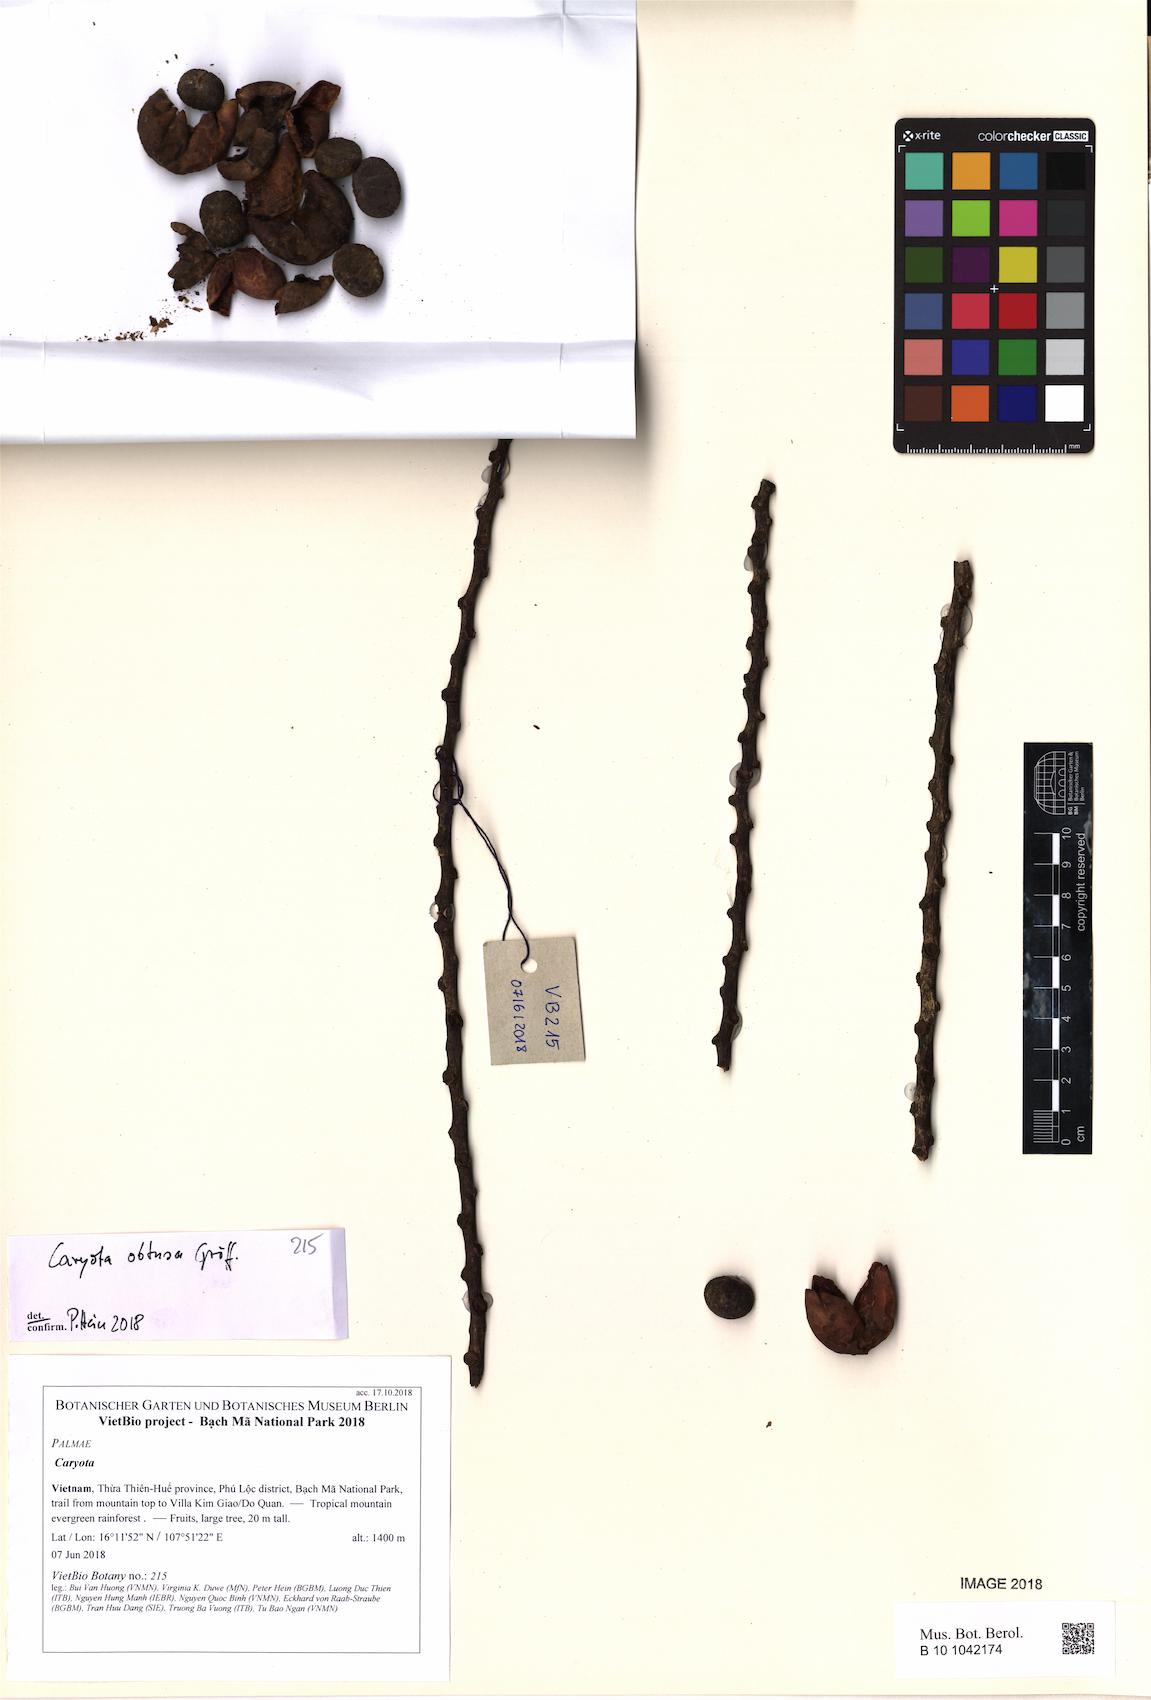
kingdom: Plantae
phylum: Tracheophyta
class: Liliopsida
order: Arecales
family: Arecaceae
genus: Caryota
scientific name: Caryota obtusa
